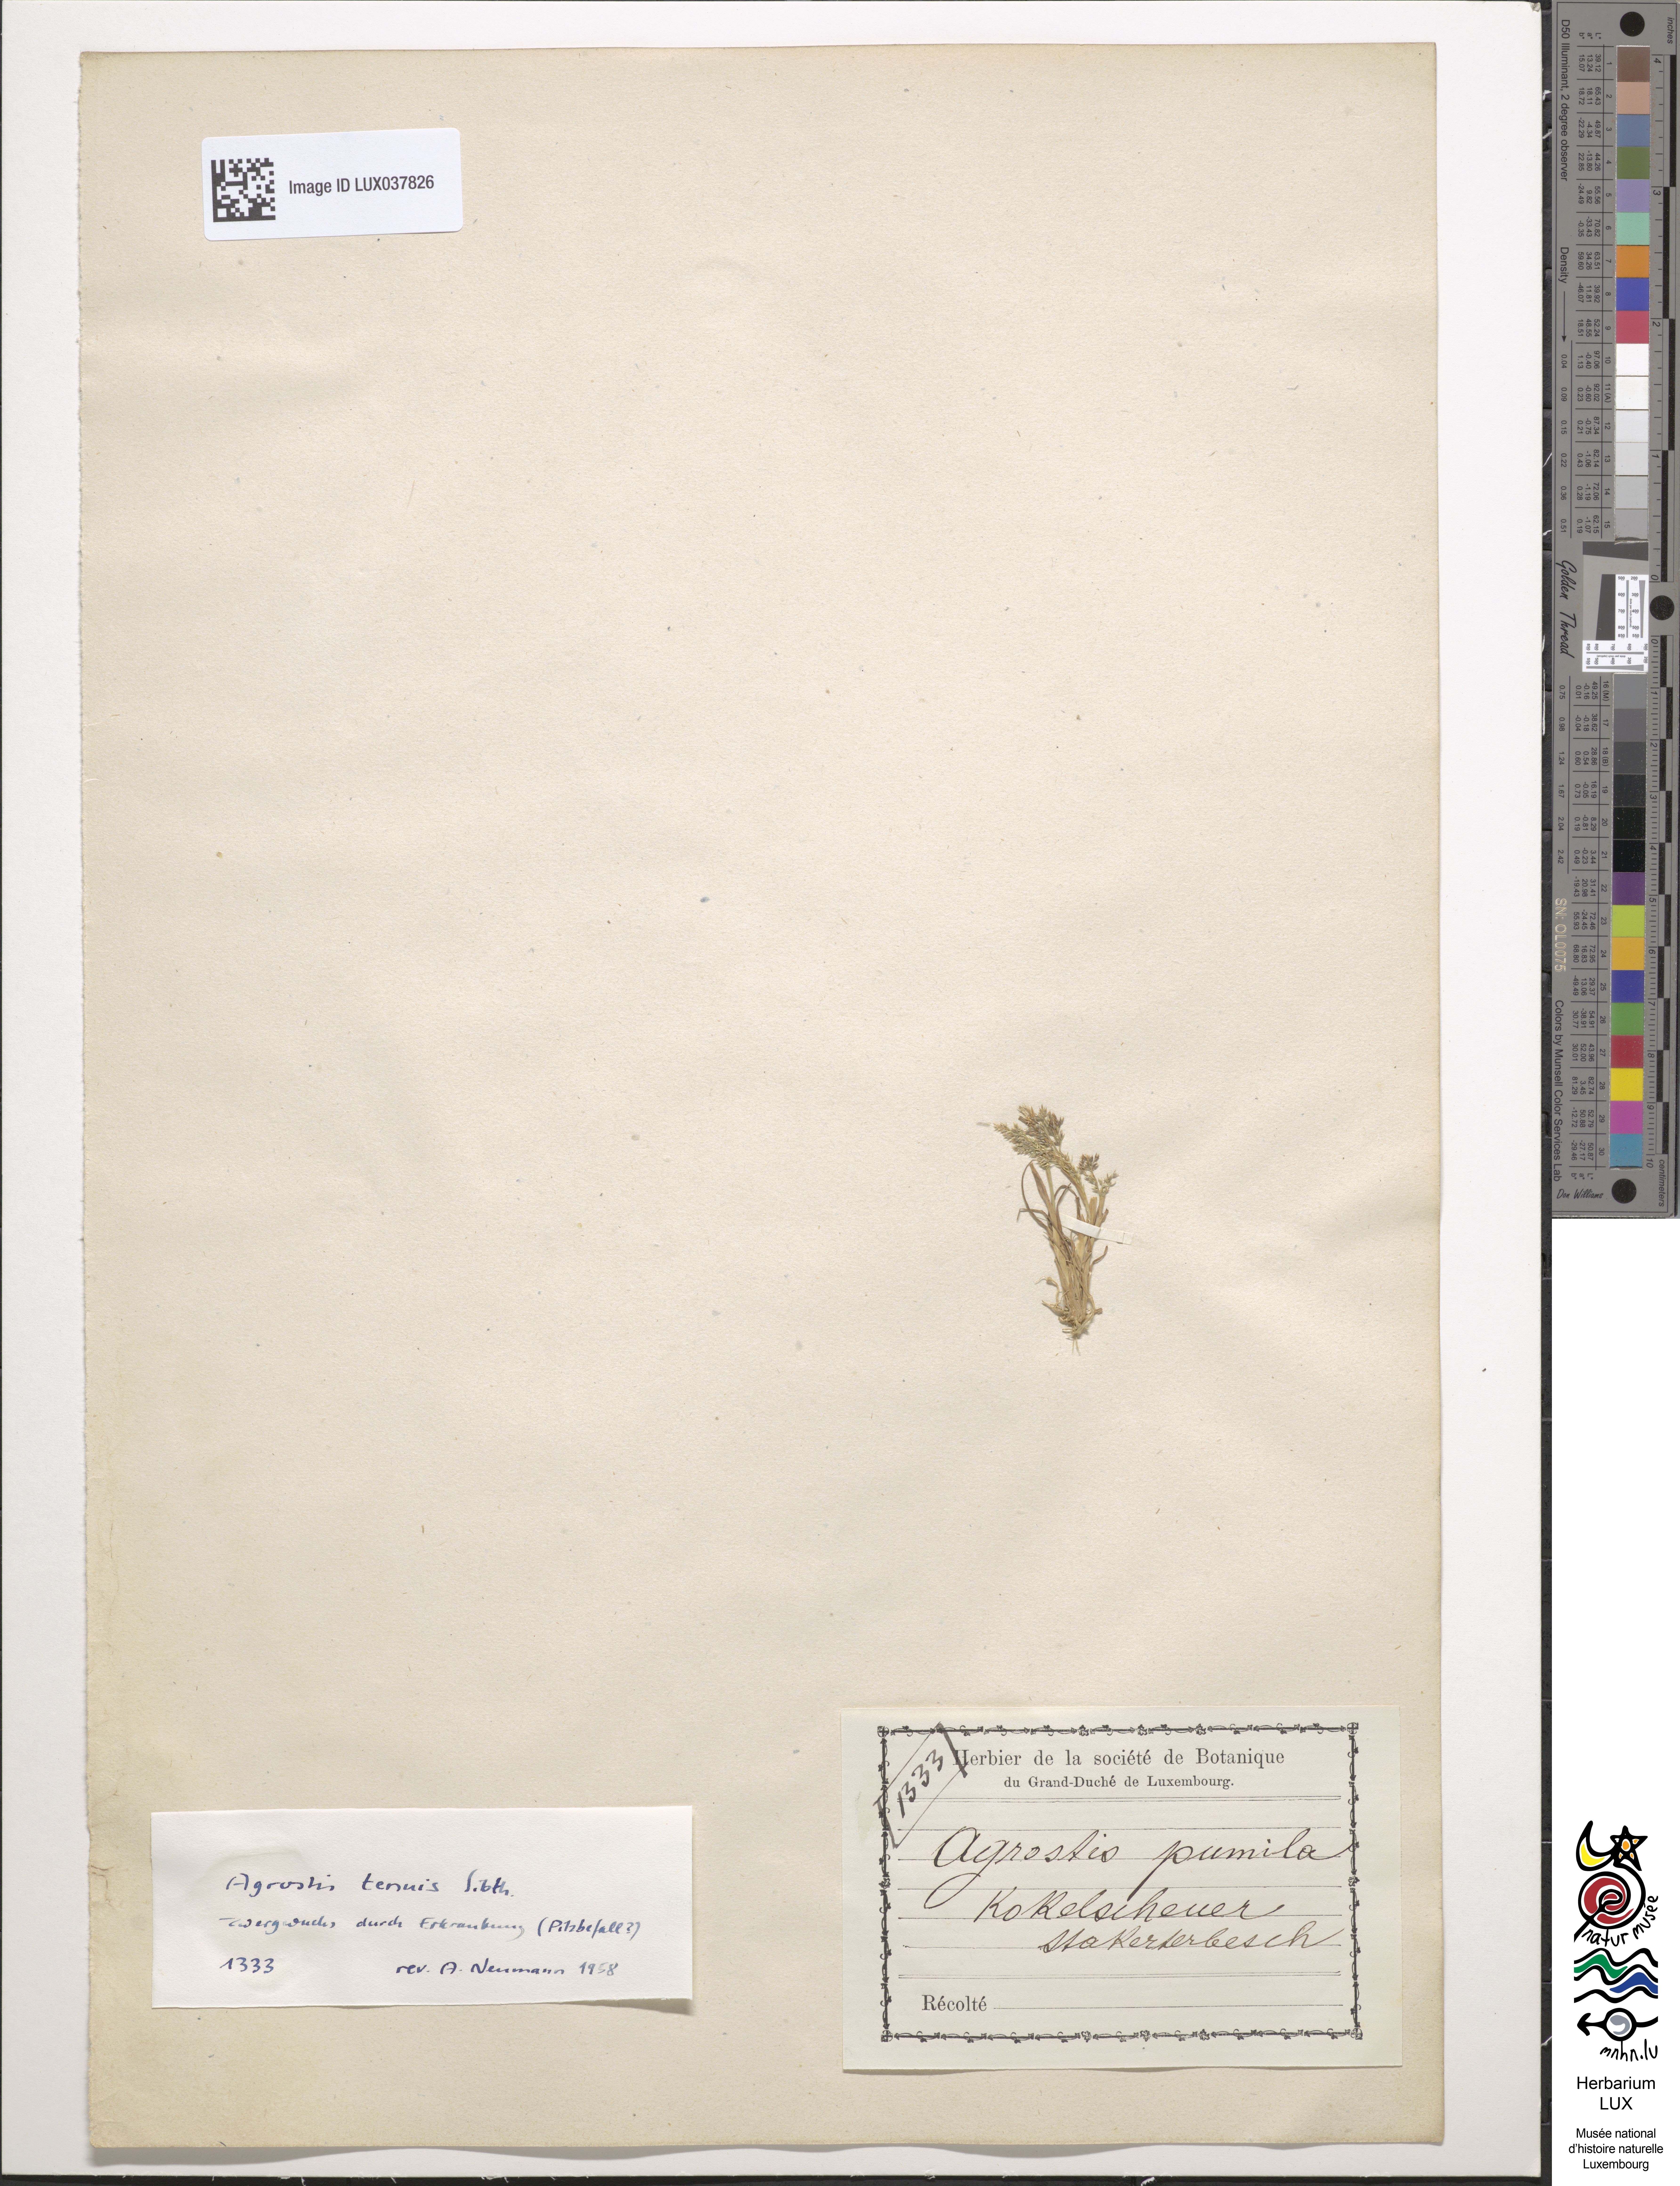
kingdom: Animalia
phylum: Arthropoda
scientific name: Arthropoda
